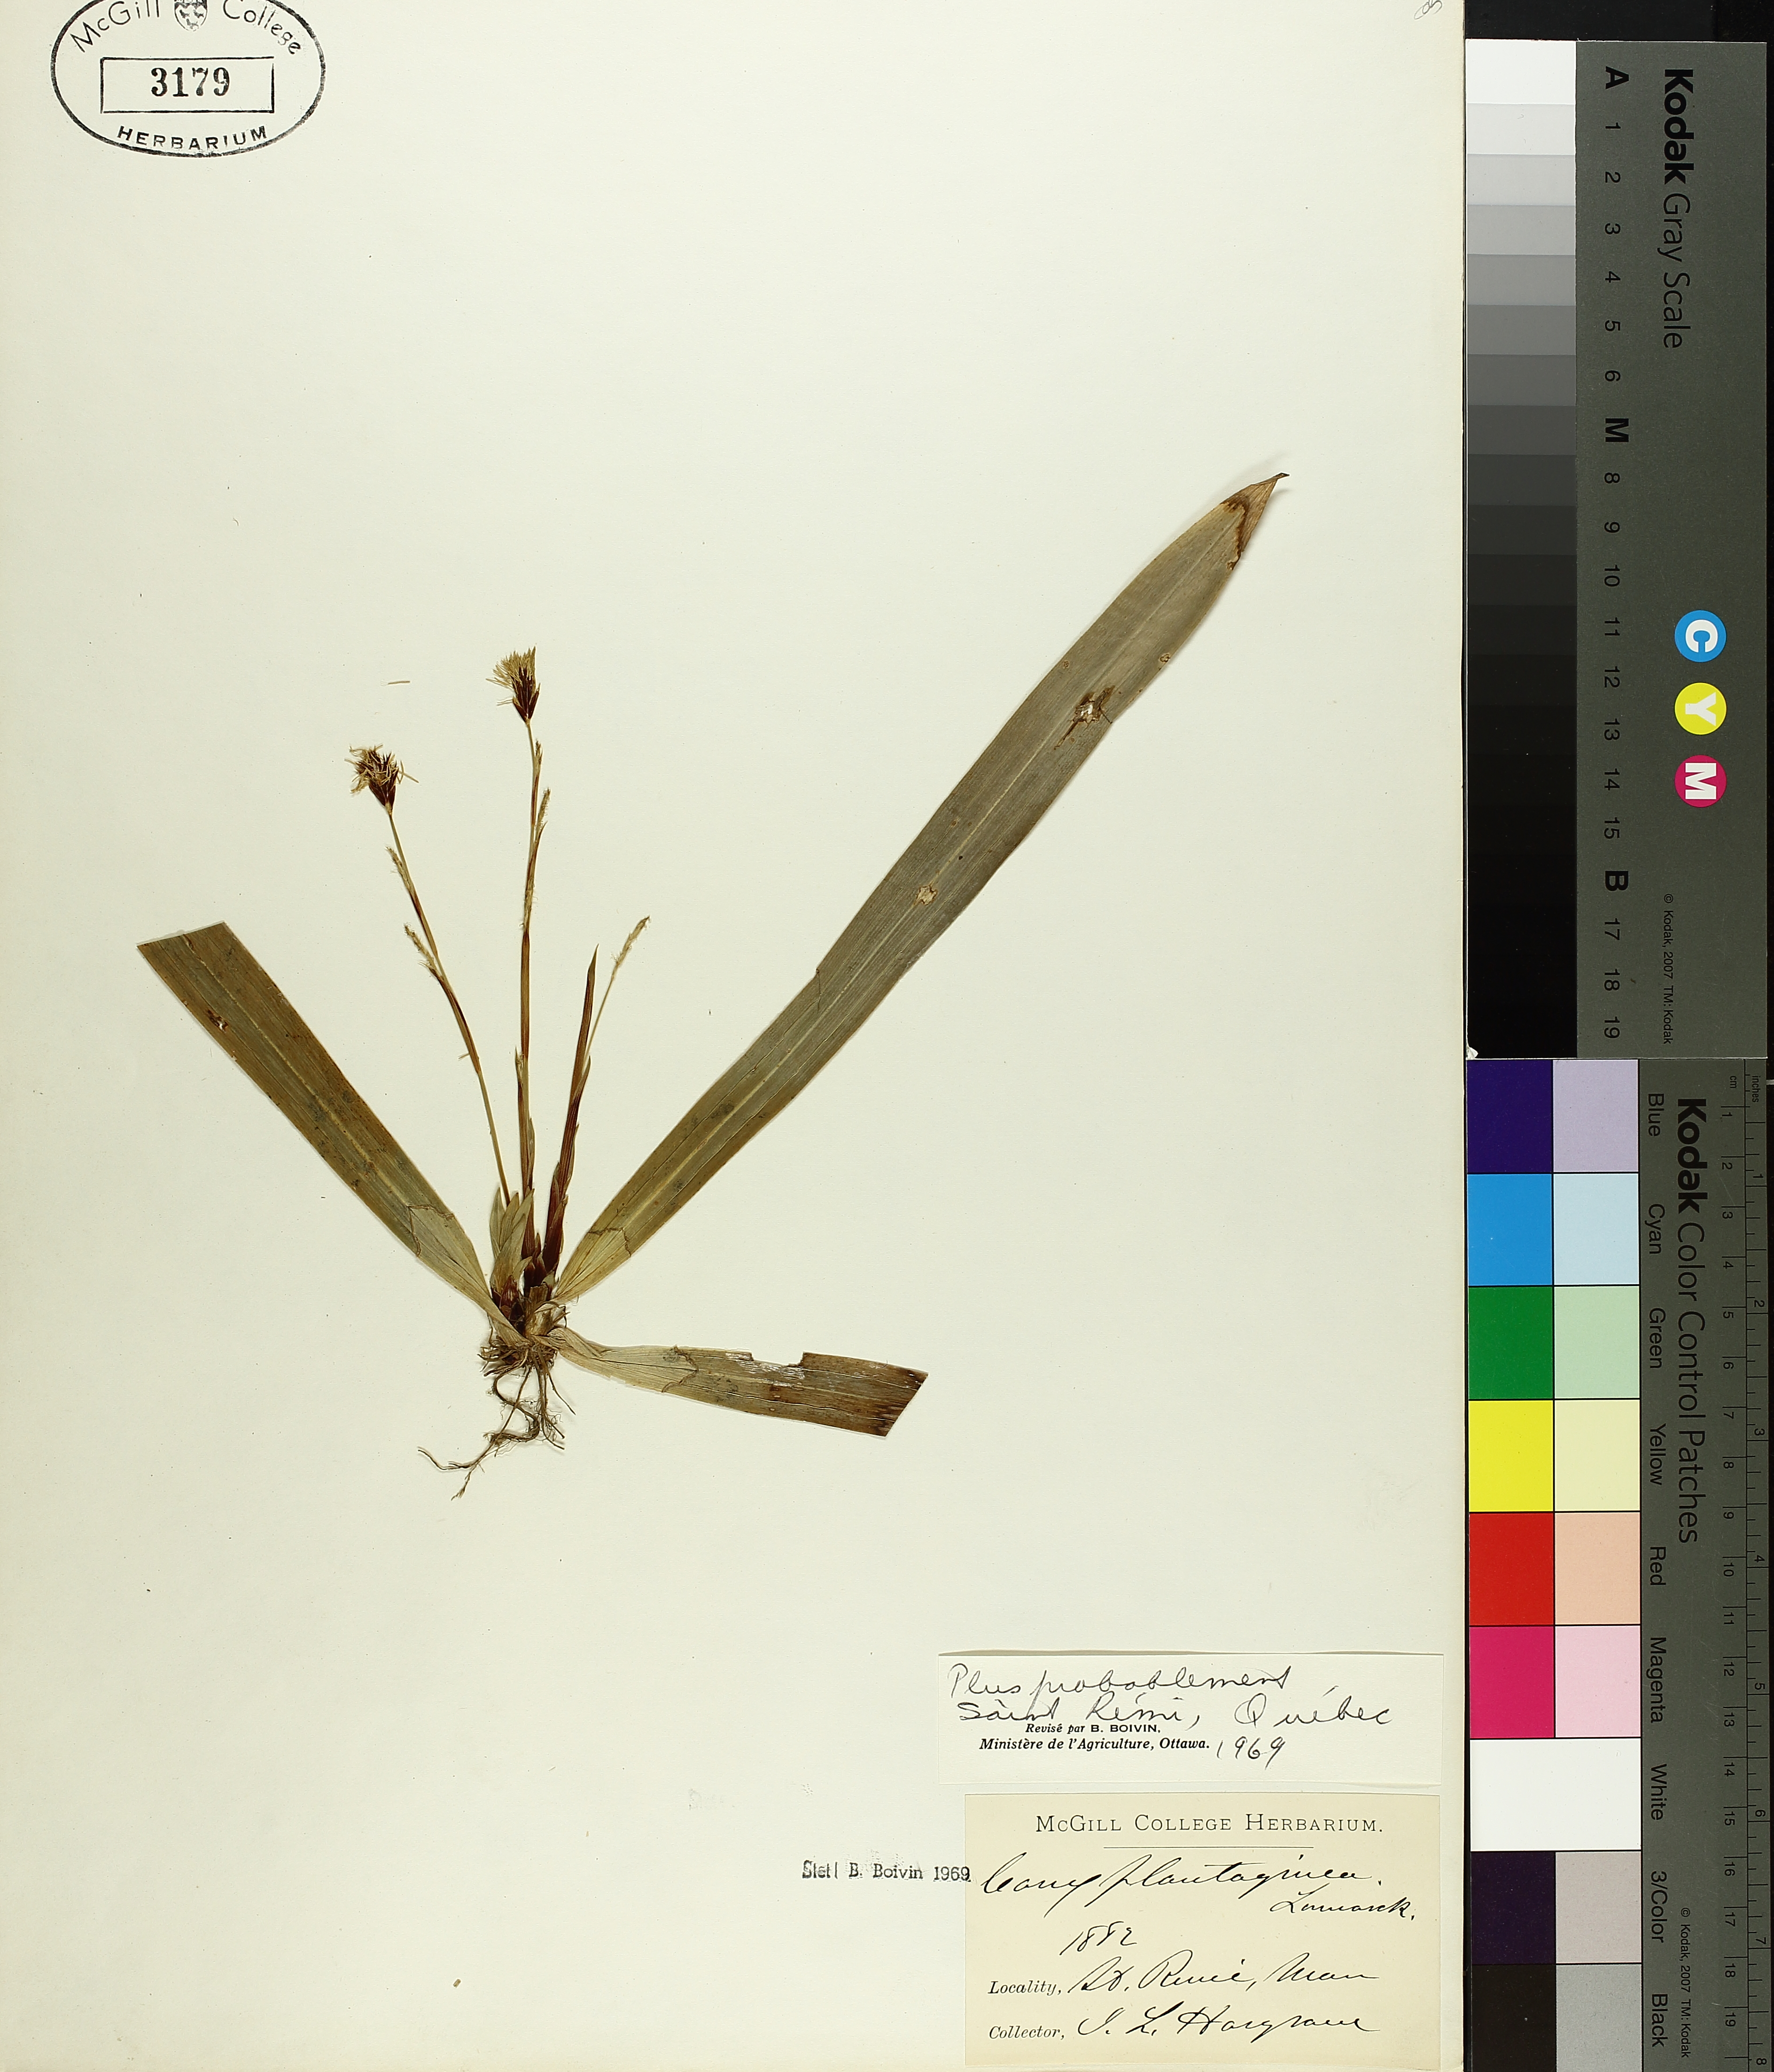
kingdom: Plantae
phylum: Tracheophyta
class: Liliopsida
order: Poales
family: Cyperaceae
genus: Carex
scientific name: Carex plantaginea
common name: Plantain-leaved sedge
